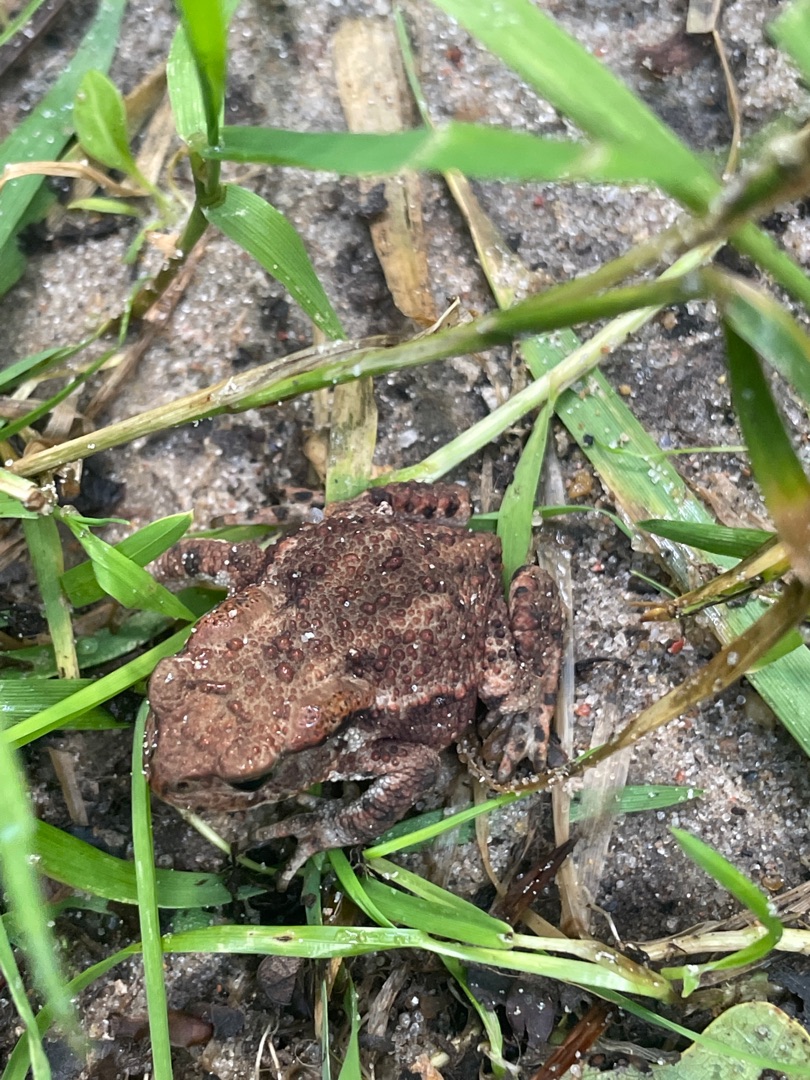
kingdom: Animalia
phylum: Chordata
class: Amphibia
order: Anura
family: Bufonidae
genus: Bufo
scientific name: Bufo bufo
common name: Skrubtudse
